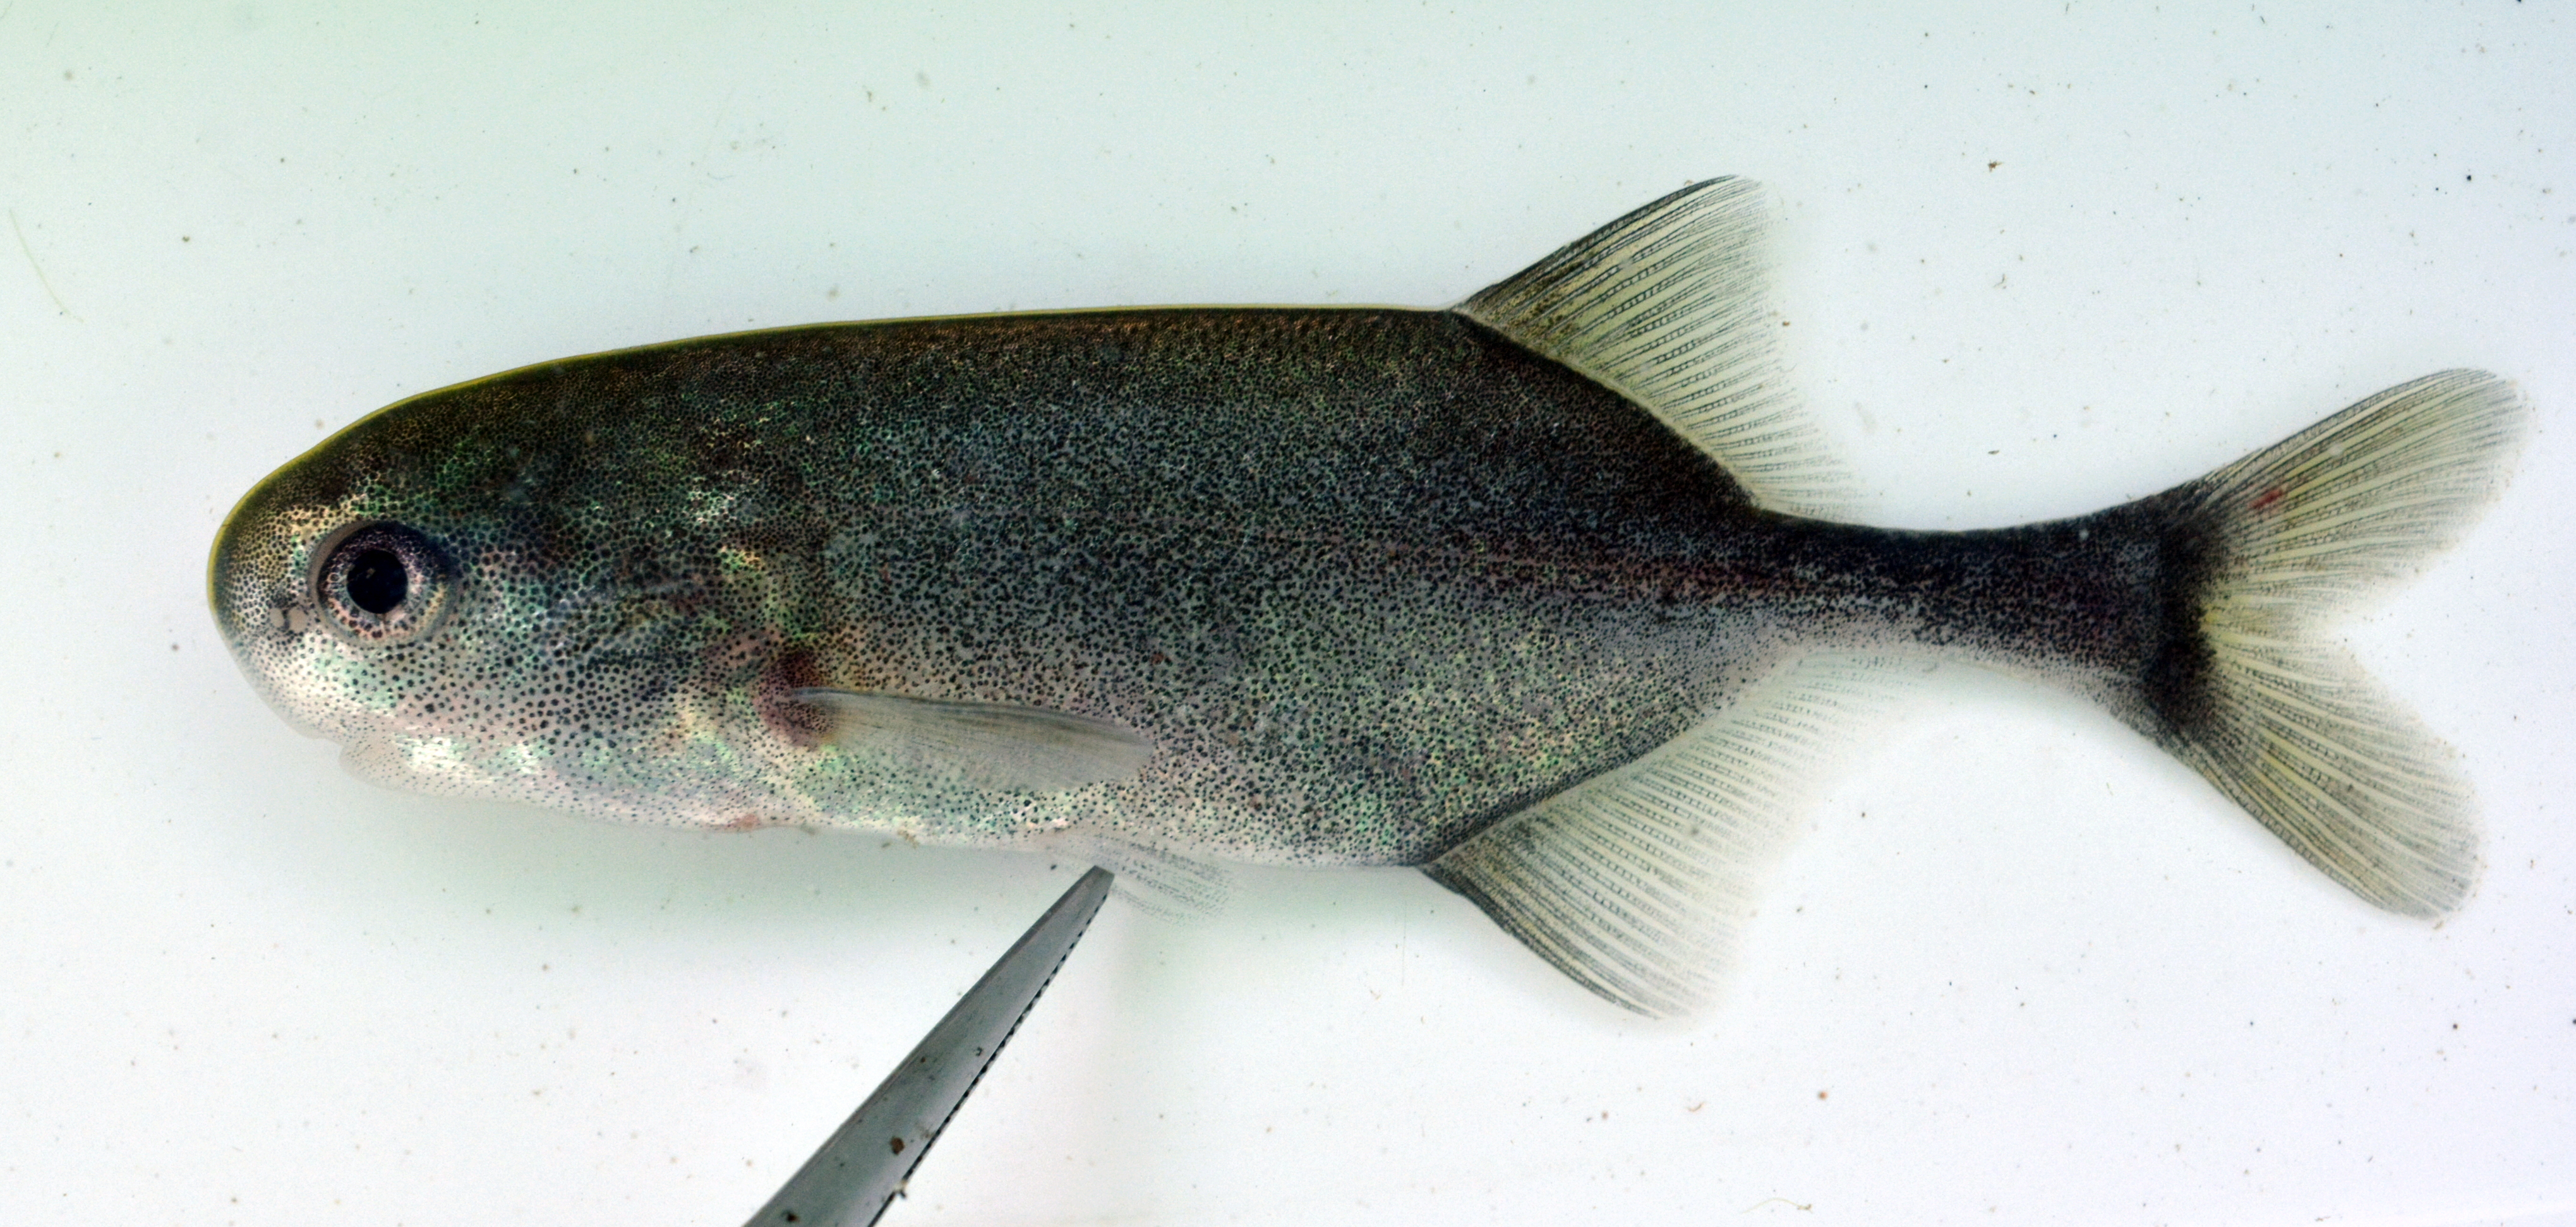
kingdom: Animalia
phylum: Chordata
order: Osteoglossiformes
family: Mormyridae
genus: Petrocephalus
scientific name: Petrocephalus okavangensis
